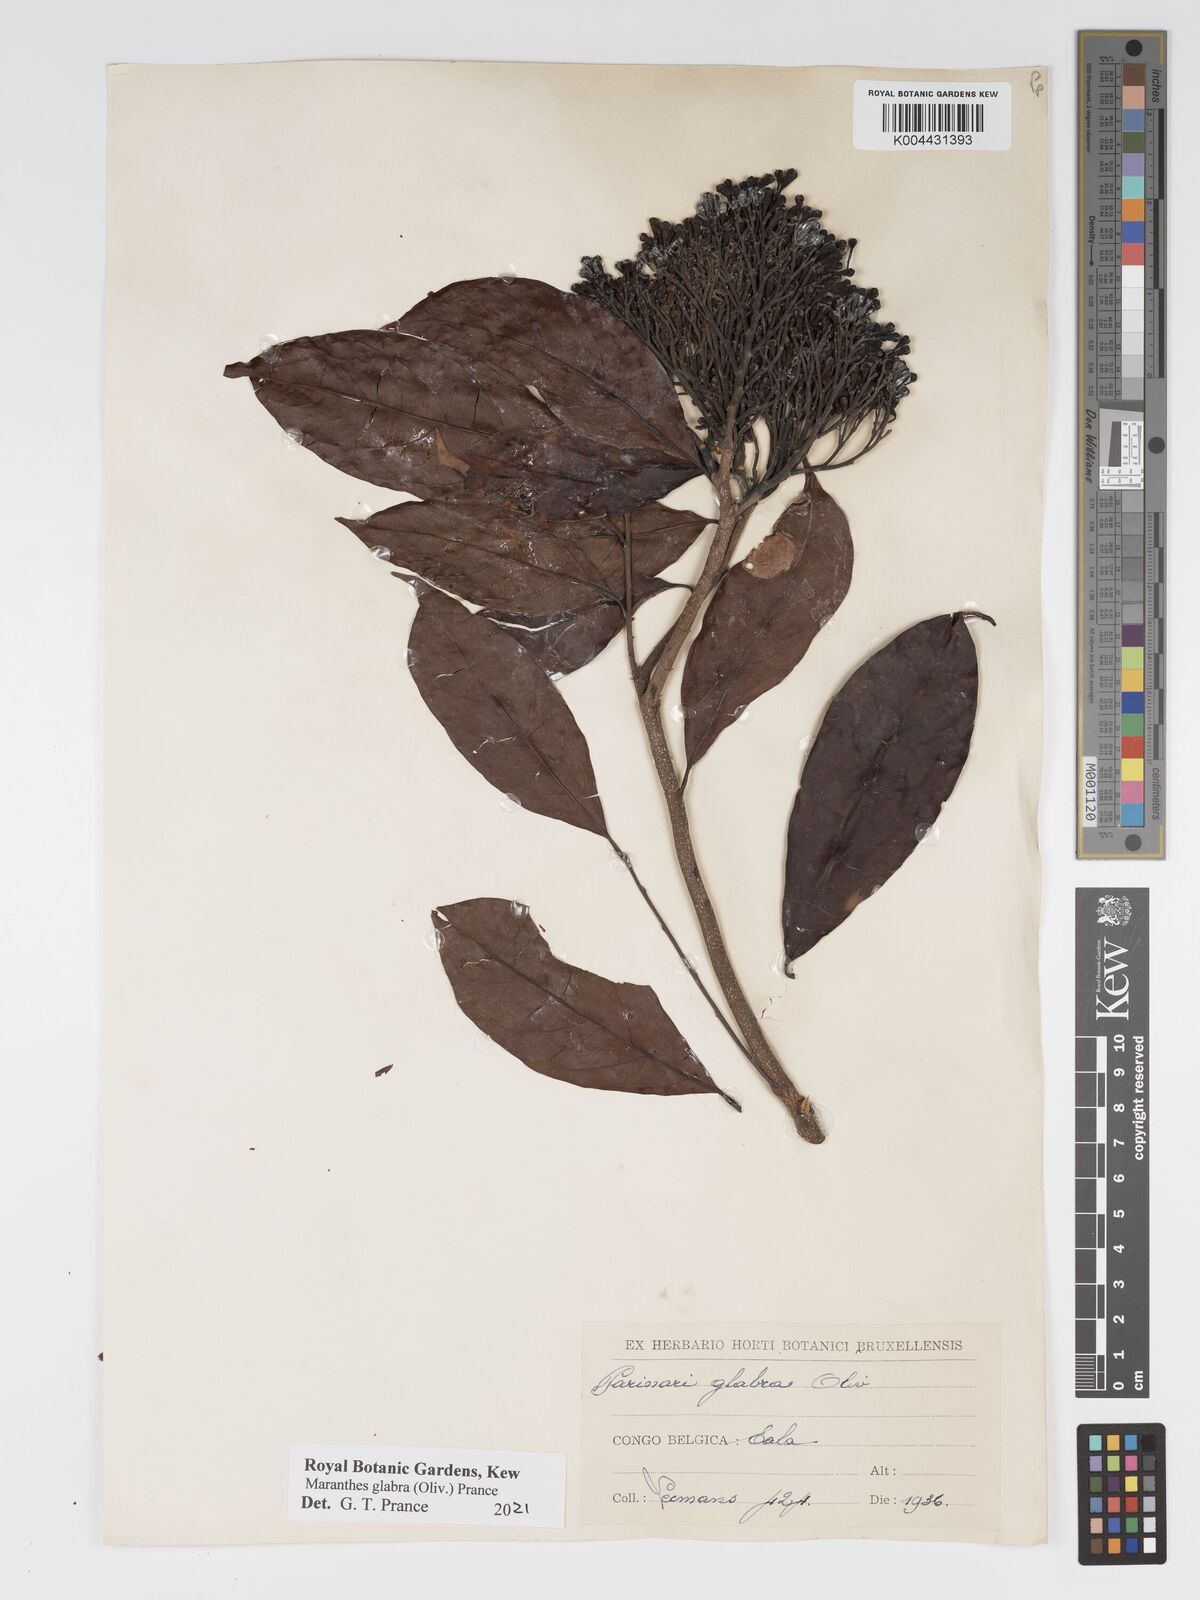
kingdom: Plantae
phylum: Tracheophyta
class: Magnoliopsida
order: Malpighiales
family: Chrysobalanaceae
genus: Maranthes
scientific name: Maranthes glabra
